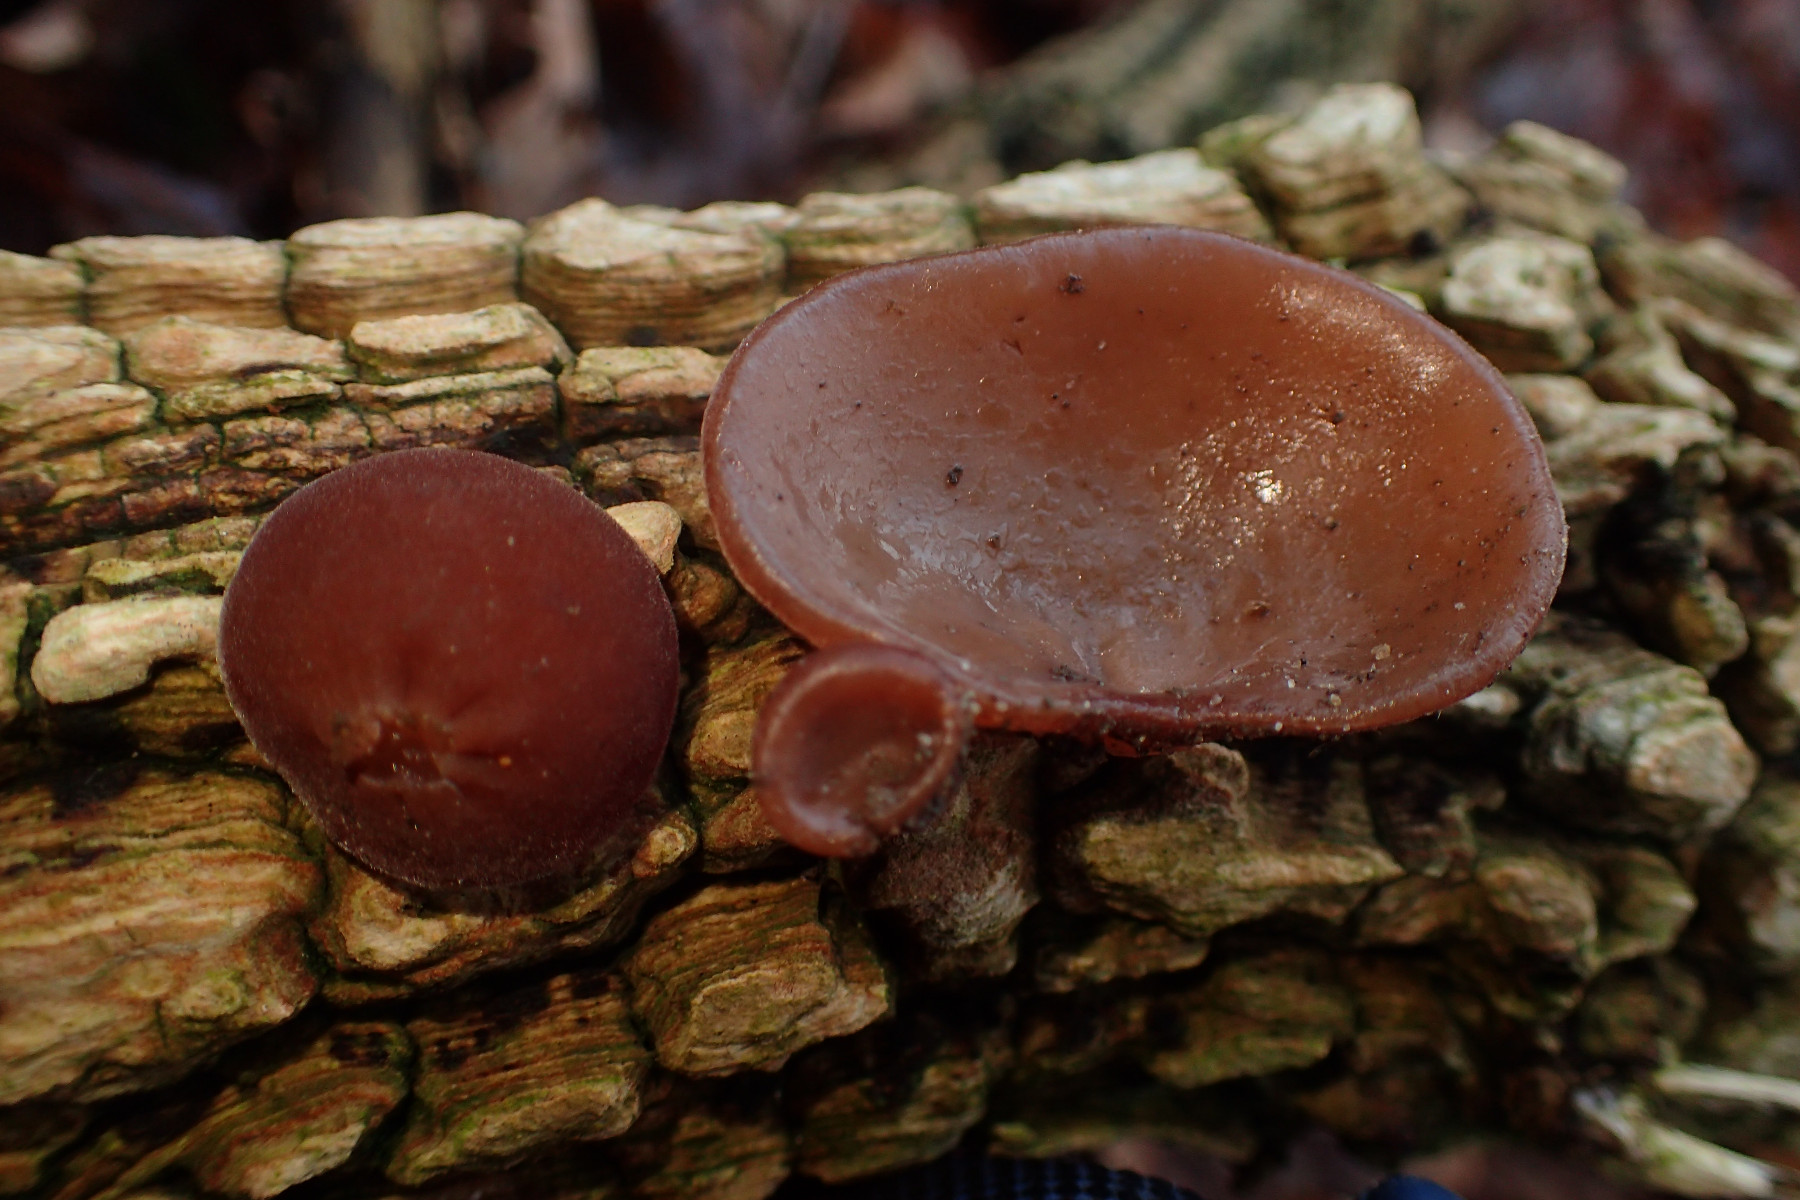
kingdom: Fungi
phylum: Basidiomycota
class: Agaricomycetes
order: Auriculariales
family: Auriculariaceae
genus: Auricularia
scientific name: Auricularia auricula-judae
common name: almindelig judasøre
